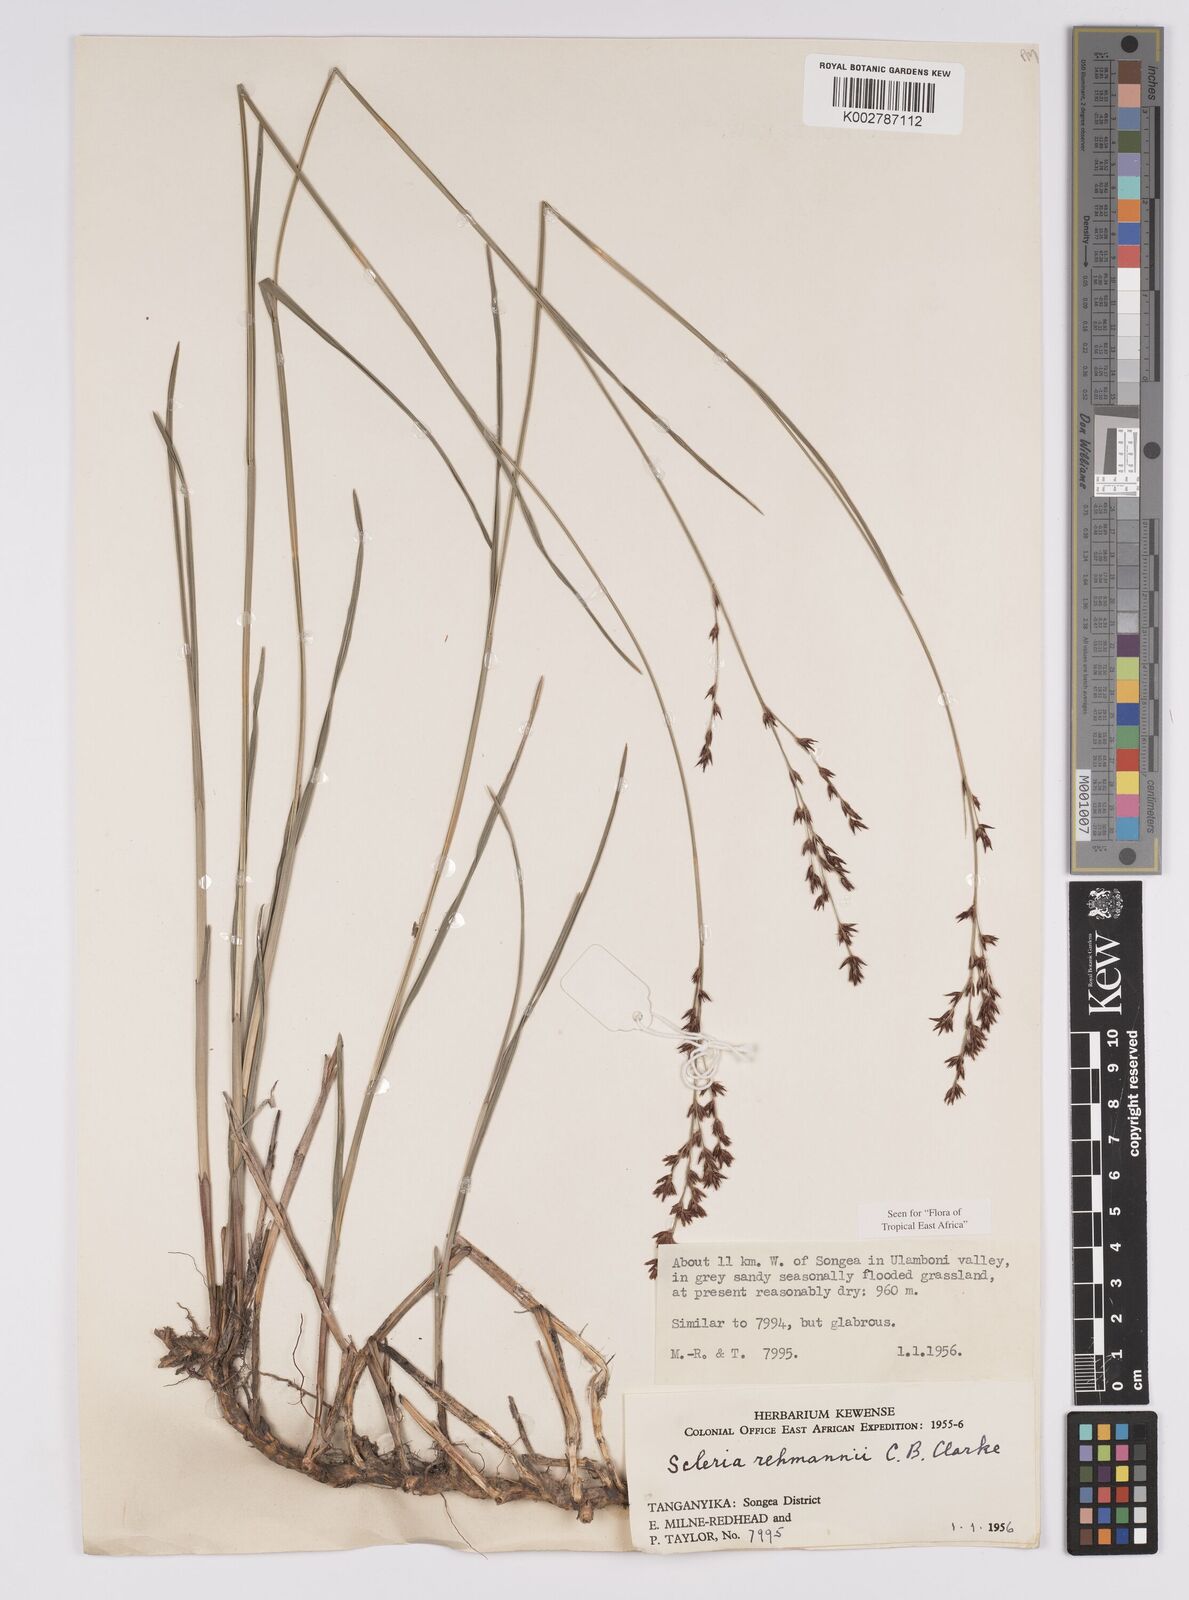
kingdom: Plantae
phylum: Tracheophyta
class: Liliopsida
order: Poales
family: Cyperaceae
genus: Scleria
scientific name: Scleria rehmannii
